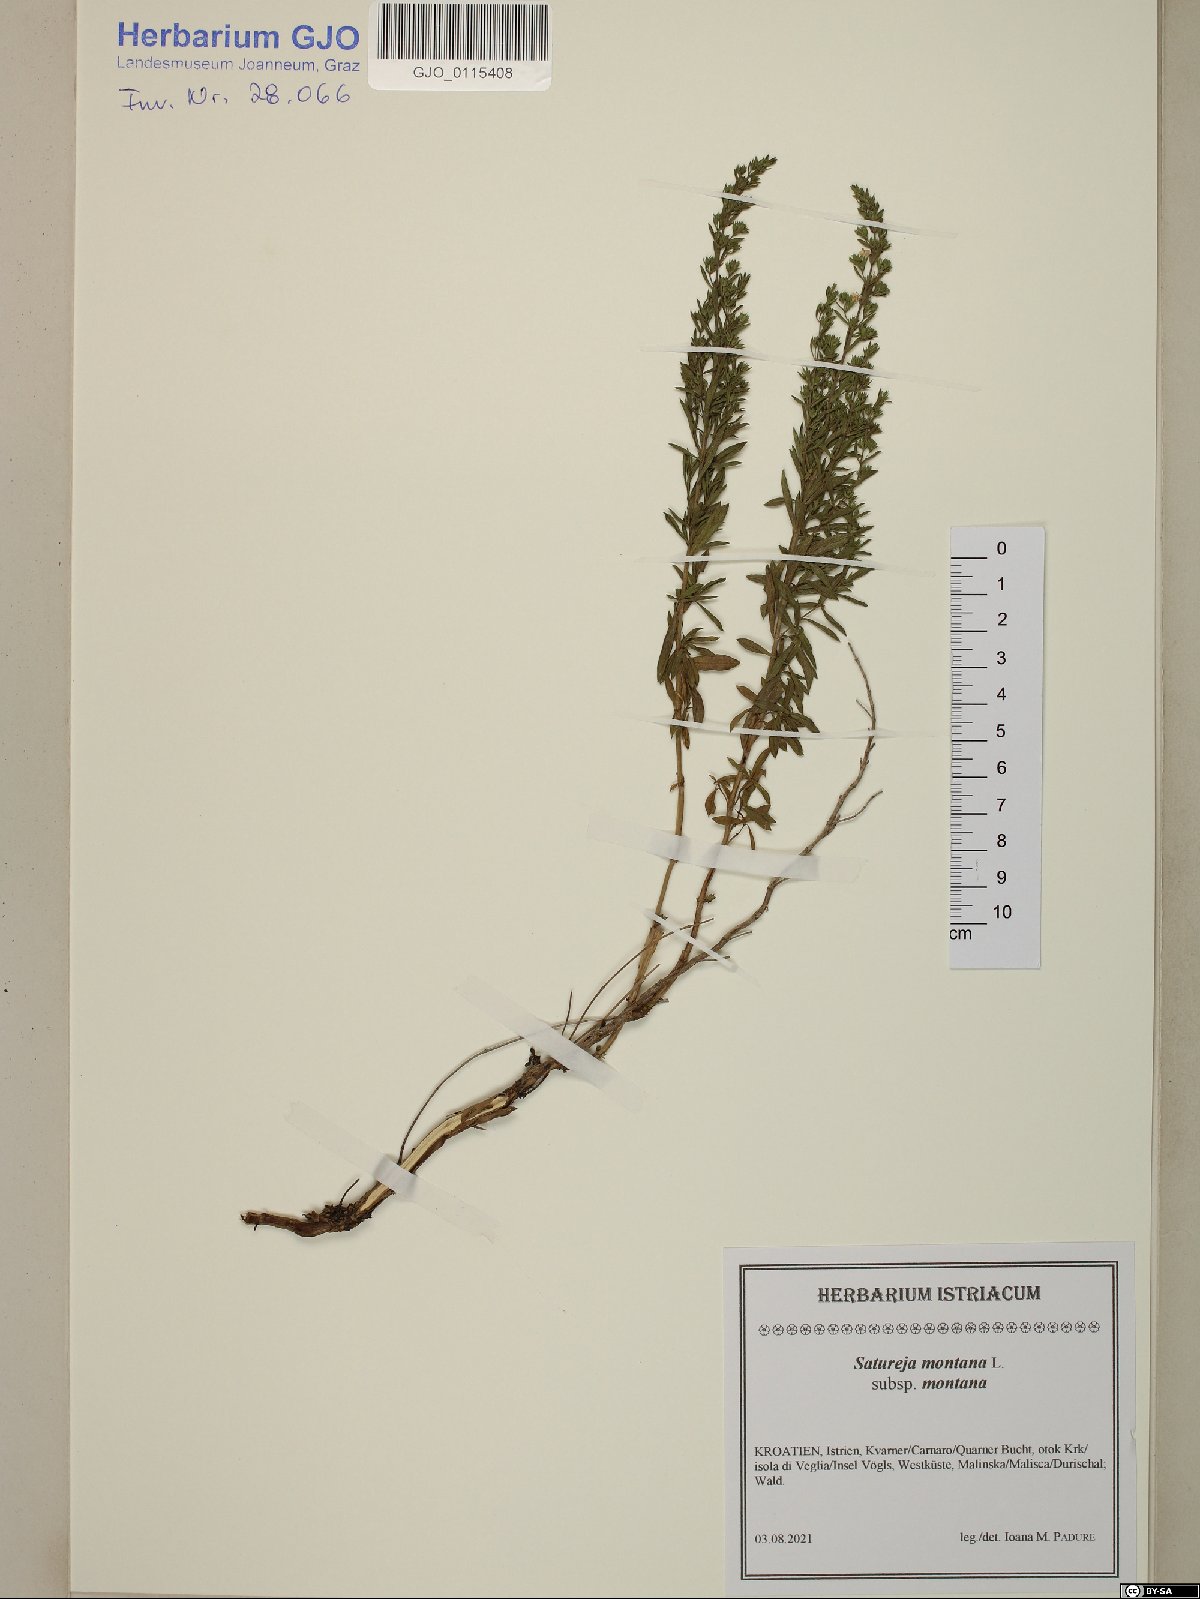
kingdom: Plantae
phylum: Tracheophyta
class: Magnoliopsida
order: Lamiales
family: Lamiaceae
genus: Satureja
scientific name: Satureja montana
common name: Winter savory
